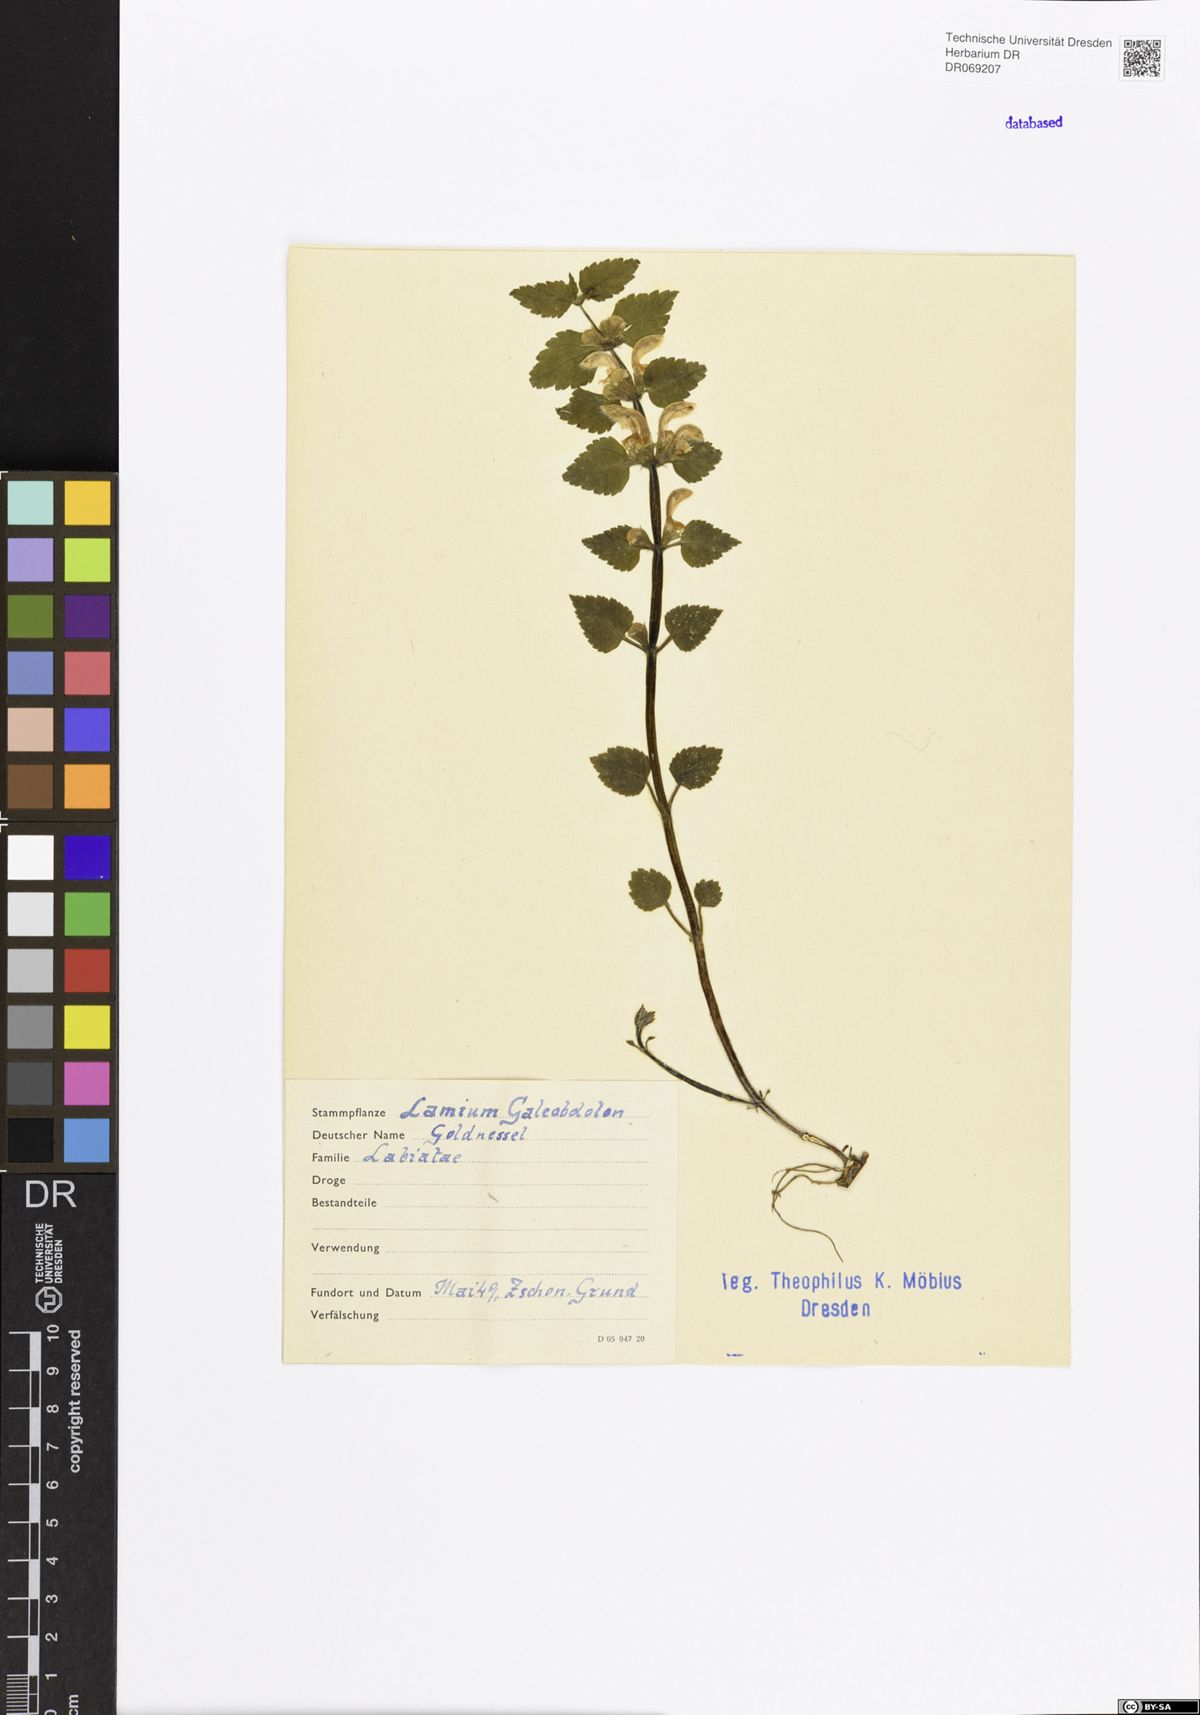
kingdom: Plantae
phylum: Tracheophyta
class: Magnoliopsida
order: Lamiales
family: Lamiaceae
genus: Lamium
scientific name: Lamium galeobdolon
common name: Yellow archangel
